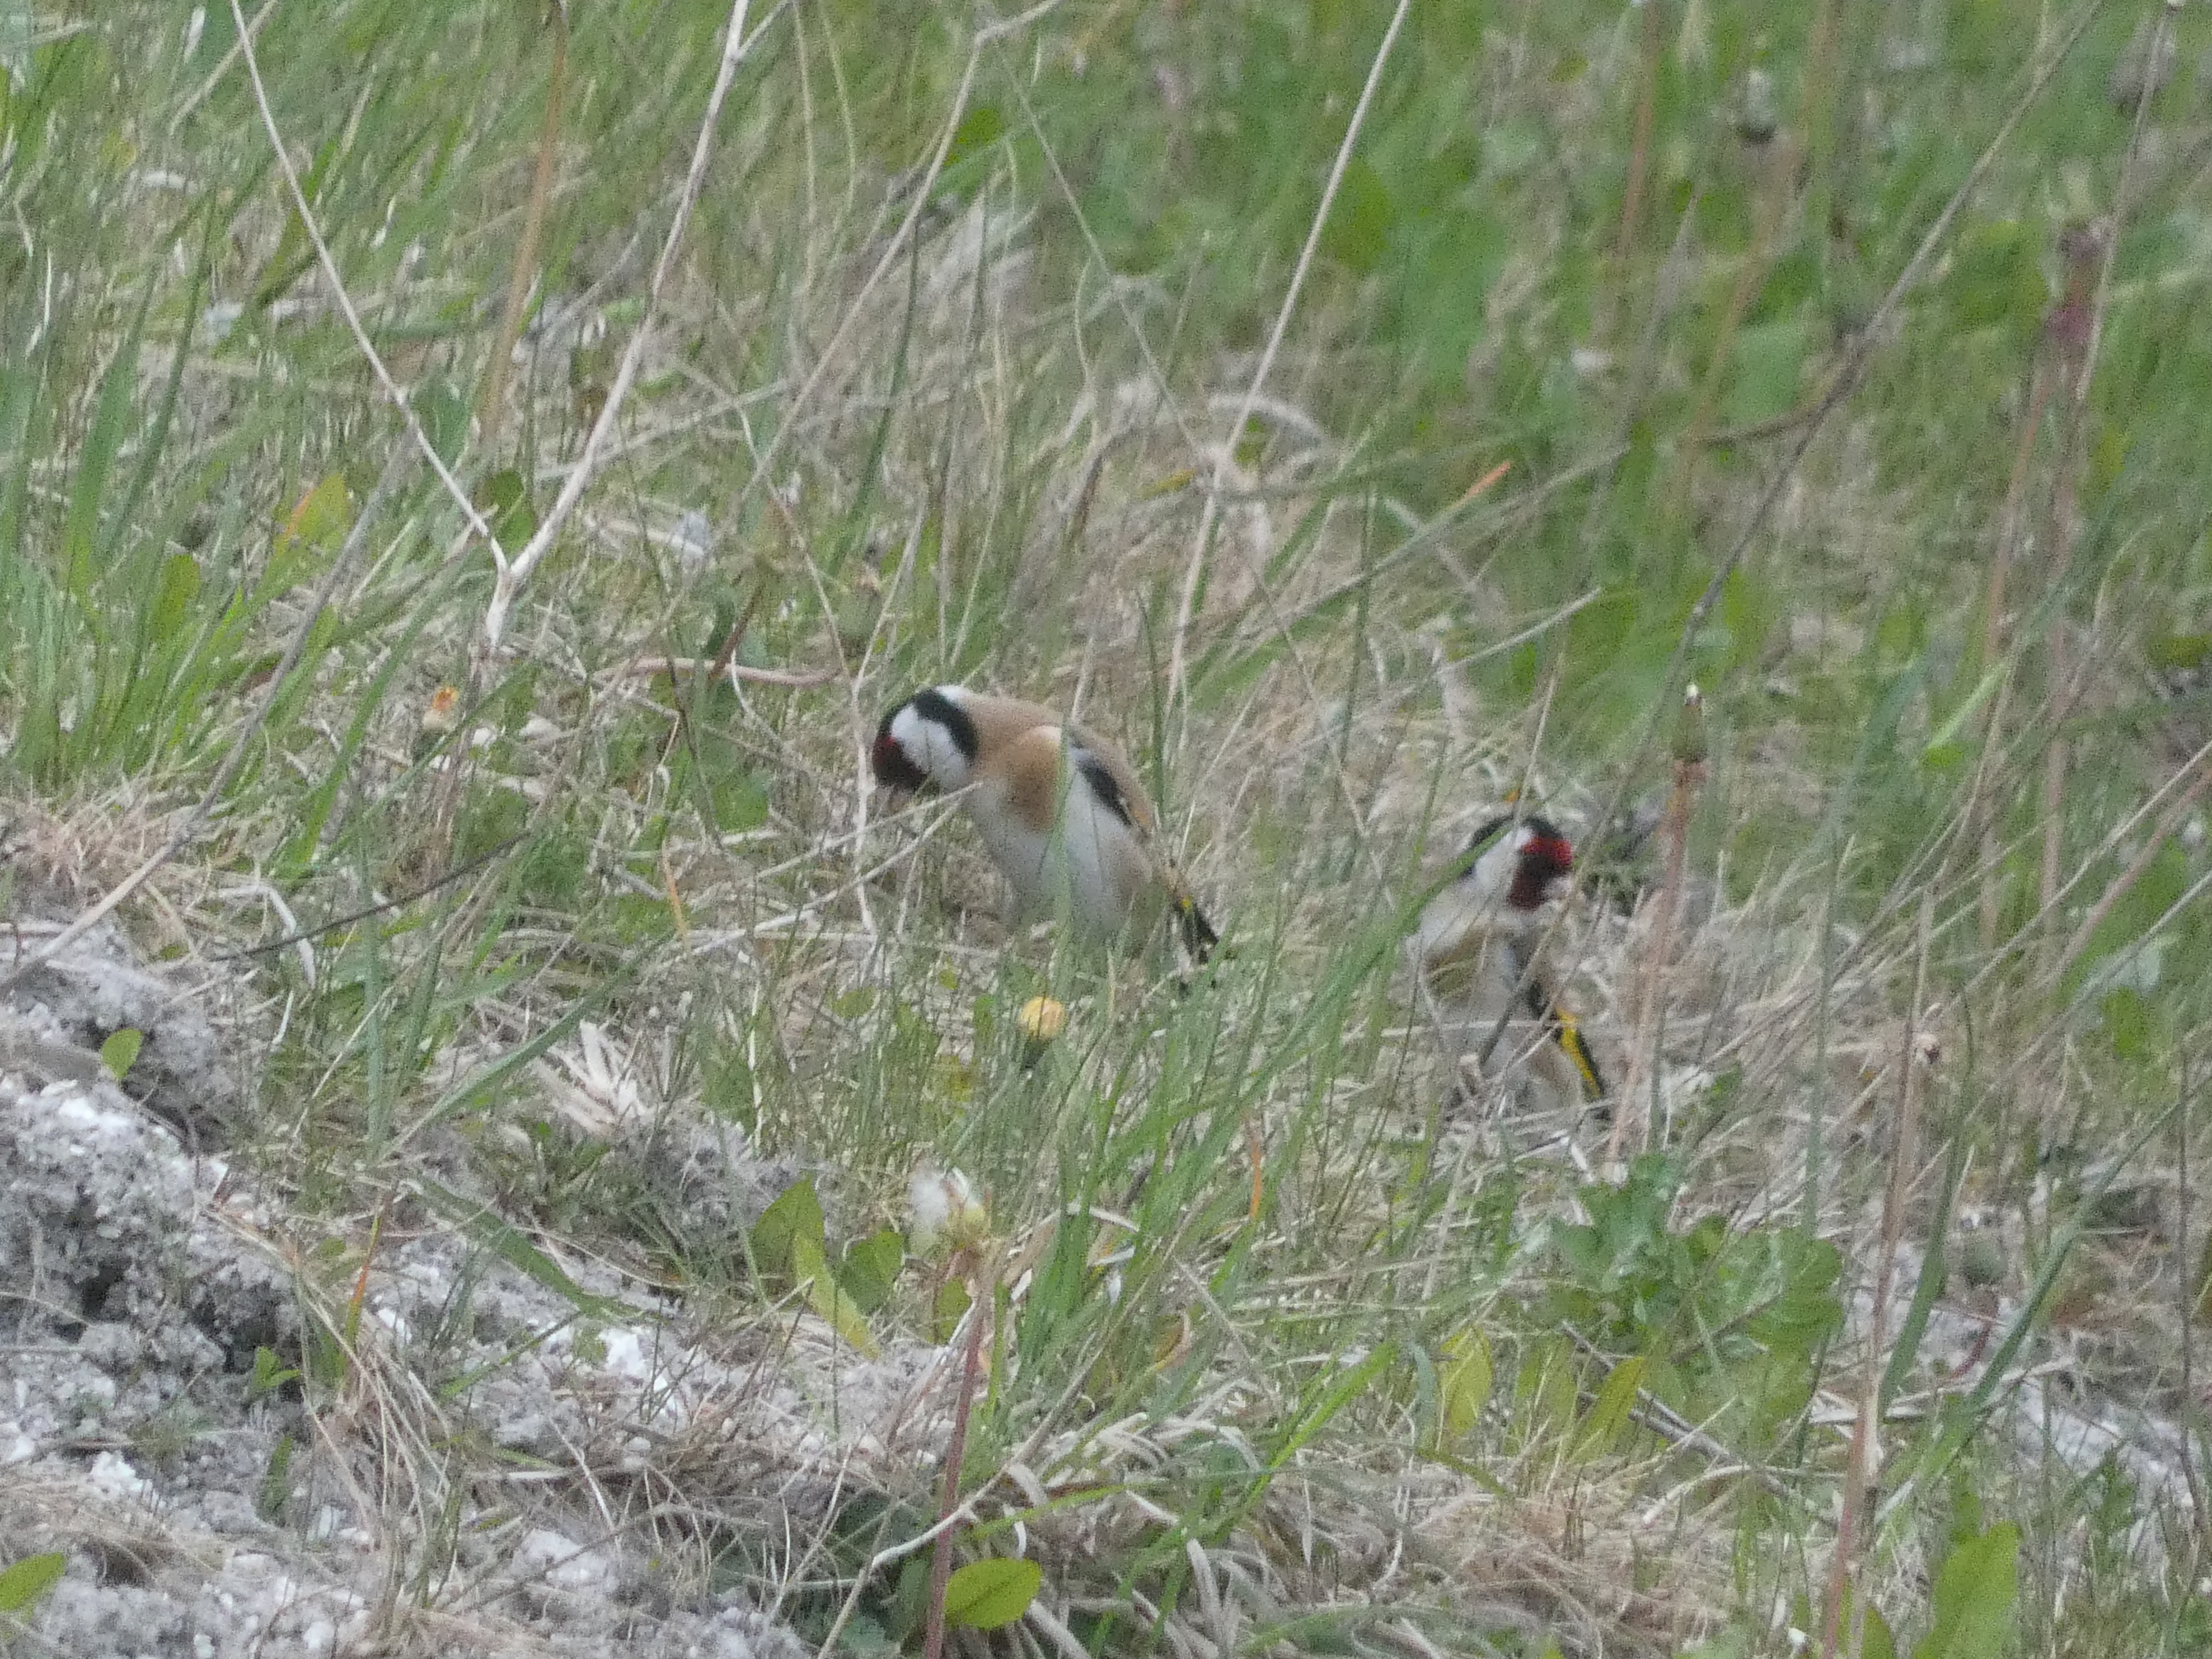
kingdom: Animalia
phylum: Chordata
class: Aves
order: Passeriformes
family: Fringillidae
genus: Carduelis
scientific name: Carduelis carduelis
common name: Stillits
